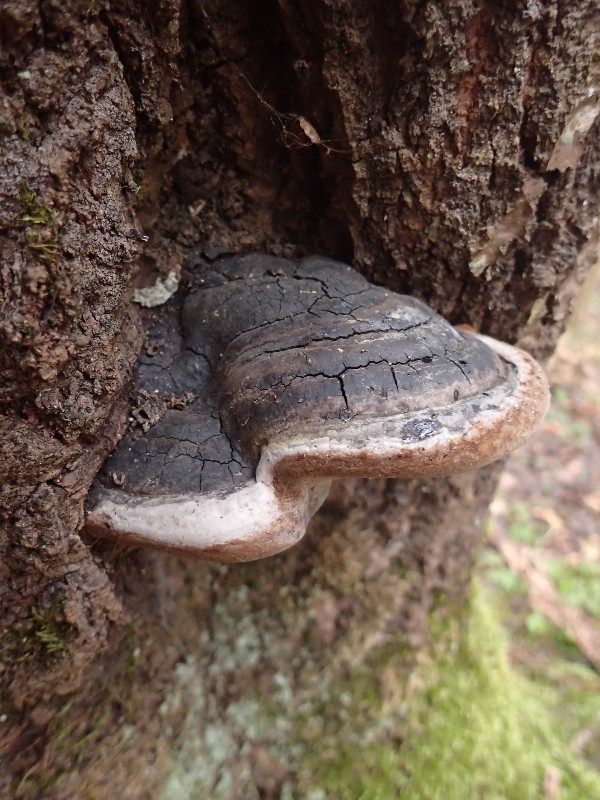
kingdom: Fungi
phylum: Basidiomycota
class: Agaricomycetes
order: Hymenochaetales
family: Hymenochaetaceae
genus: Phellinus
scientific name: Phellinus tremulae
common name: aspe-ildporesvamp
